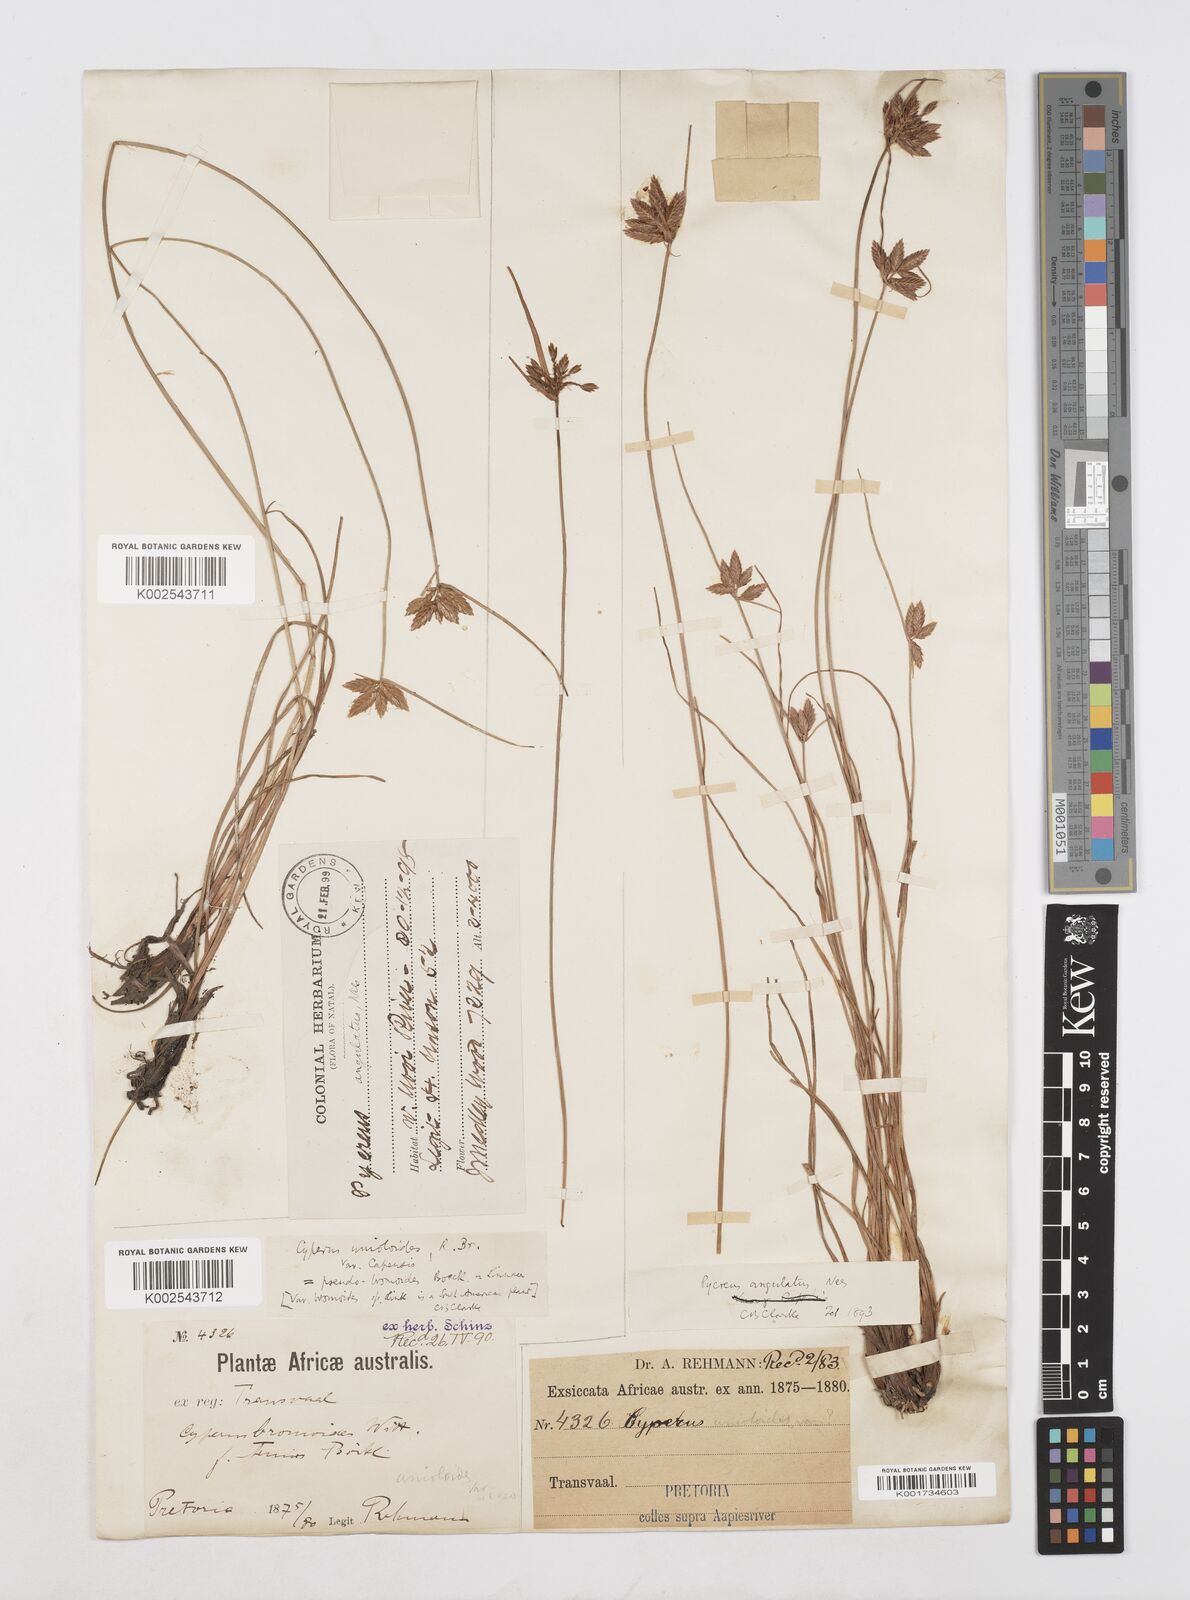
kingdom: Plantae
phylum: Tracheophyta
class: Liliopsida
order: Poales
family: Cyperaceae
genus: Cyperus
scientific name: Cyperus unioloides
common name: Uniola flatsedge
